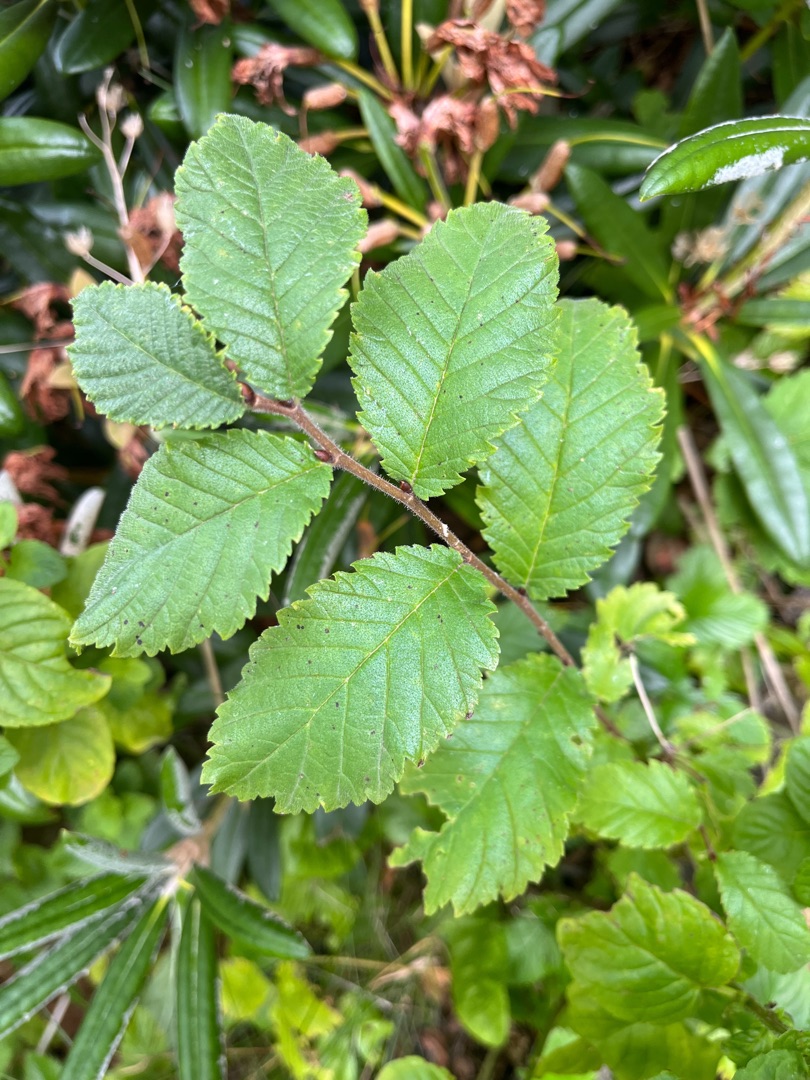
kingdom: Plantae
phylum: Tracheophyta
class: Magnoliopsida
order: Rosales
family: Ulmaceae
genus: Ulmus
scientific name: Ulmus glabra
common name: Skov-elm/storbladet elm
